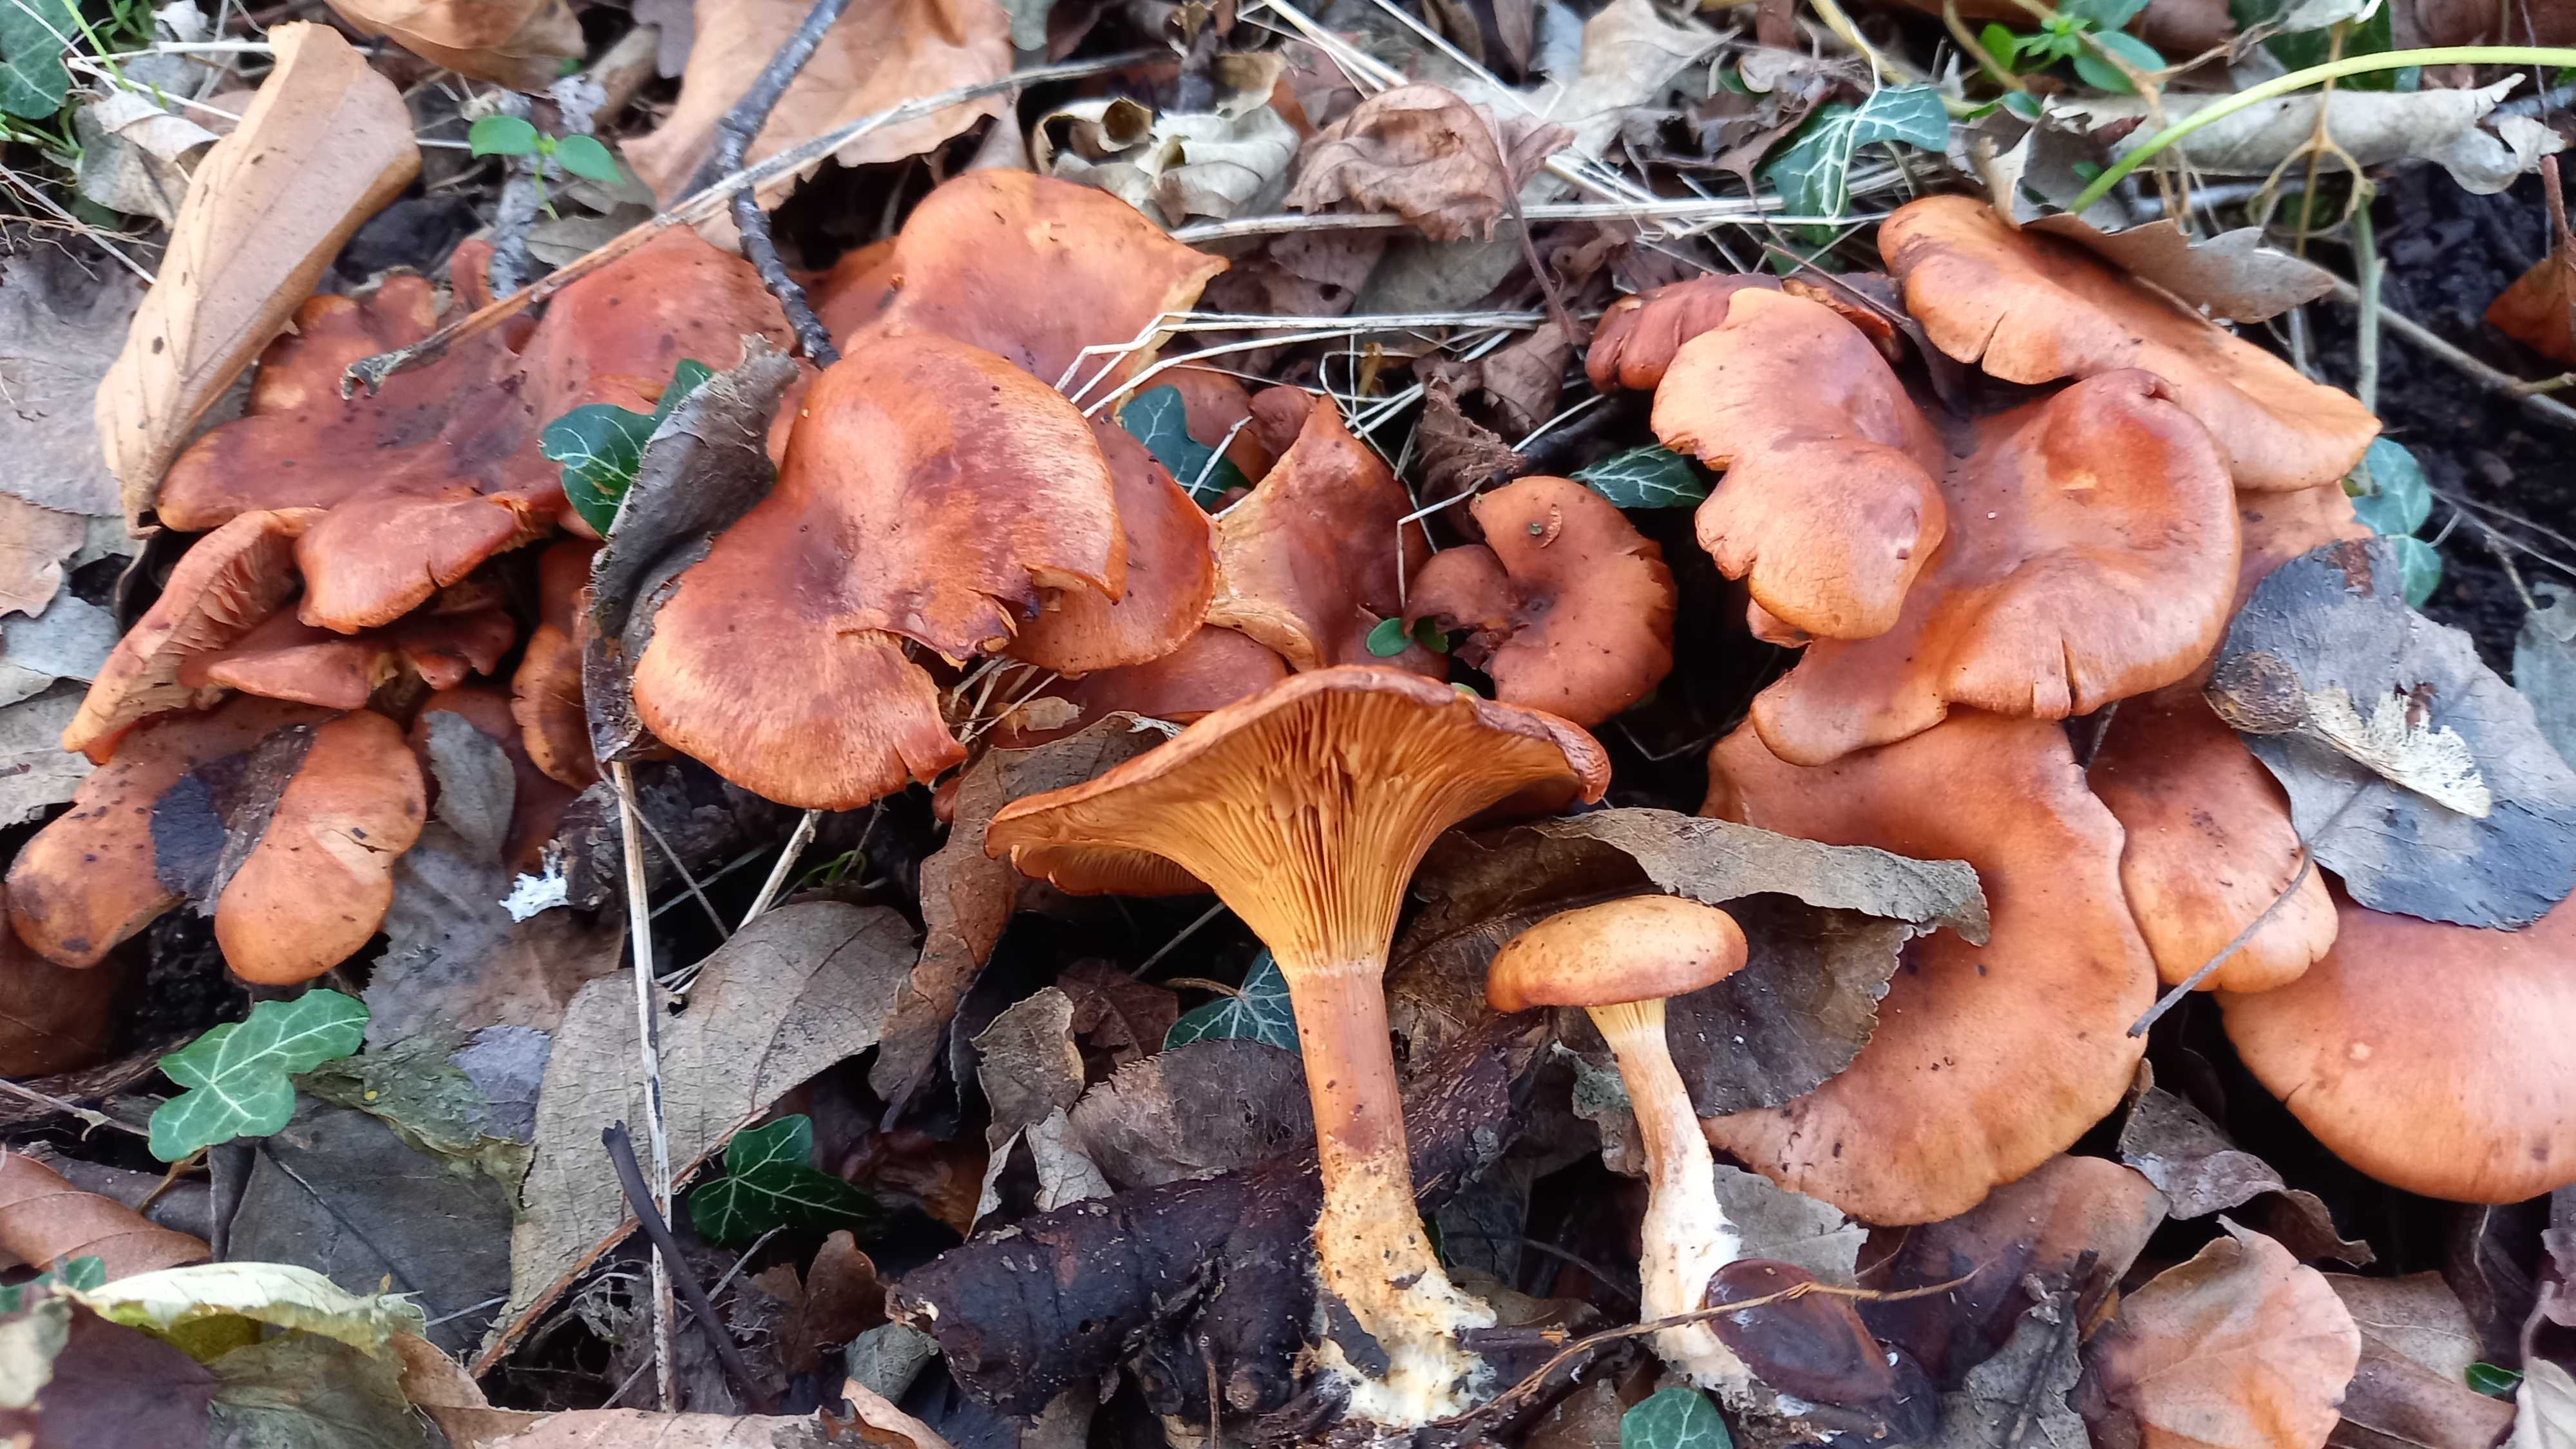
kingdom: Fungi
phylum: Basidiomycota
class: Agaricomycetes
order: Agaricales
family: Tricholomataceae
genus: Paralepista
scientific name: Paralepista flaccida
